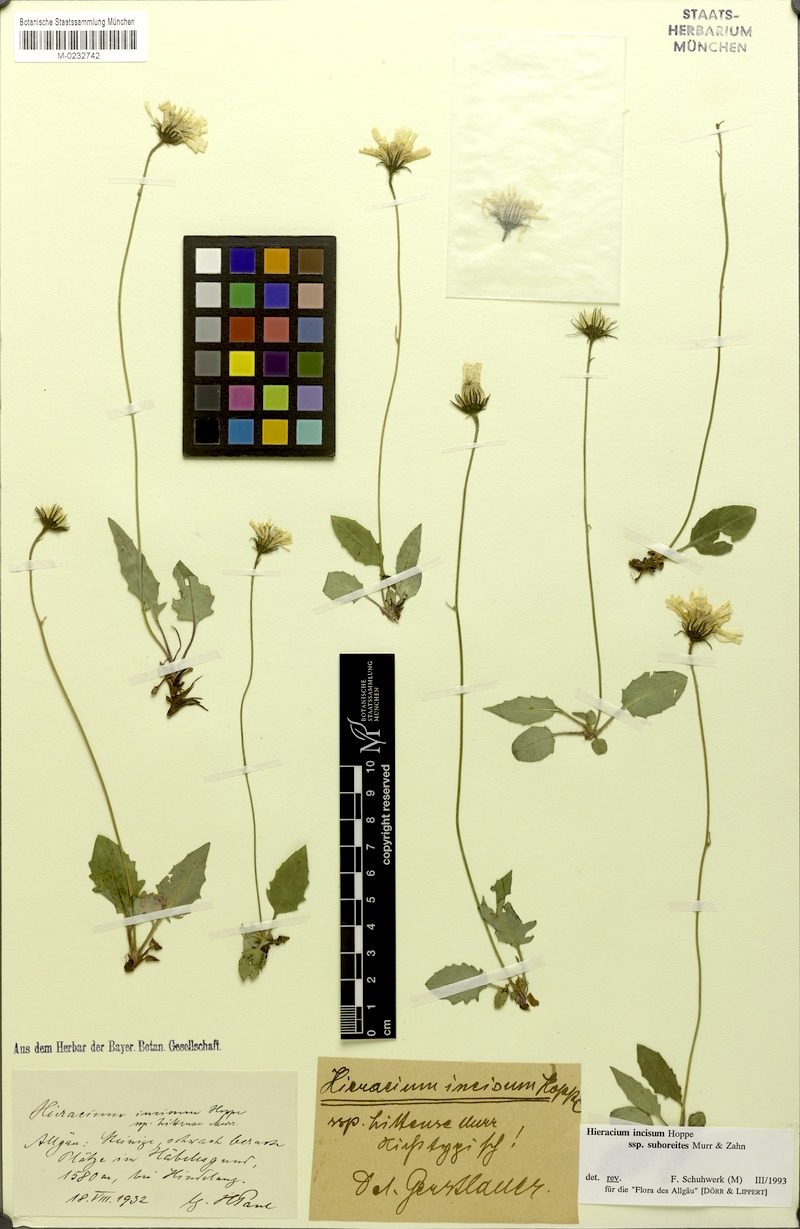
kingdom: Plantae
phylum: Tracheophyta
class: Magnoliopsida
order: Asterales
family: Asteraceae
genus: Hieracium
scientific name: Hieracium pallescens
